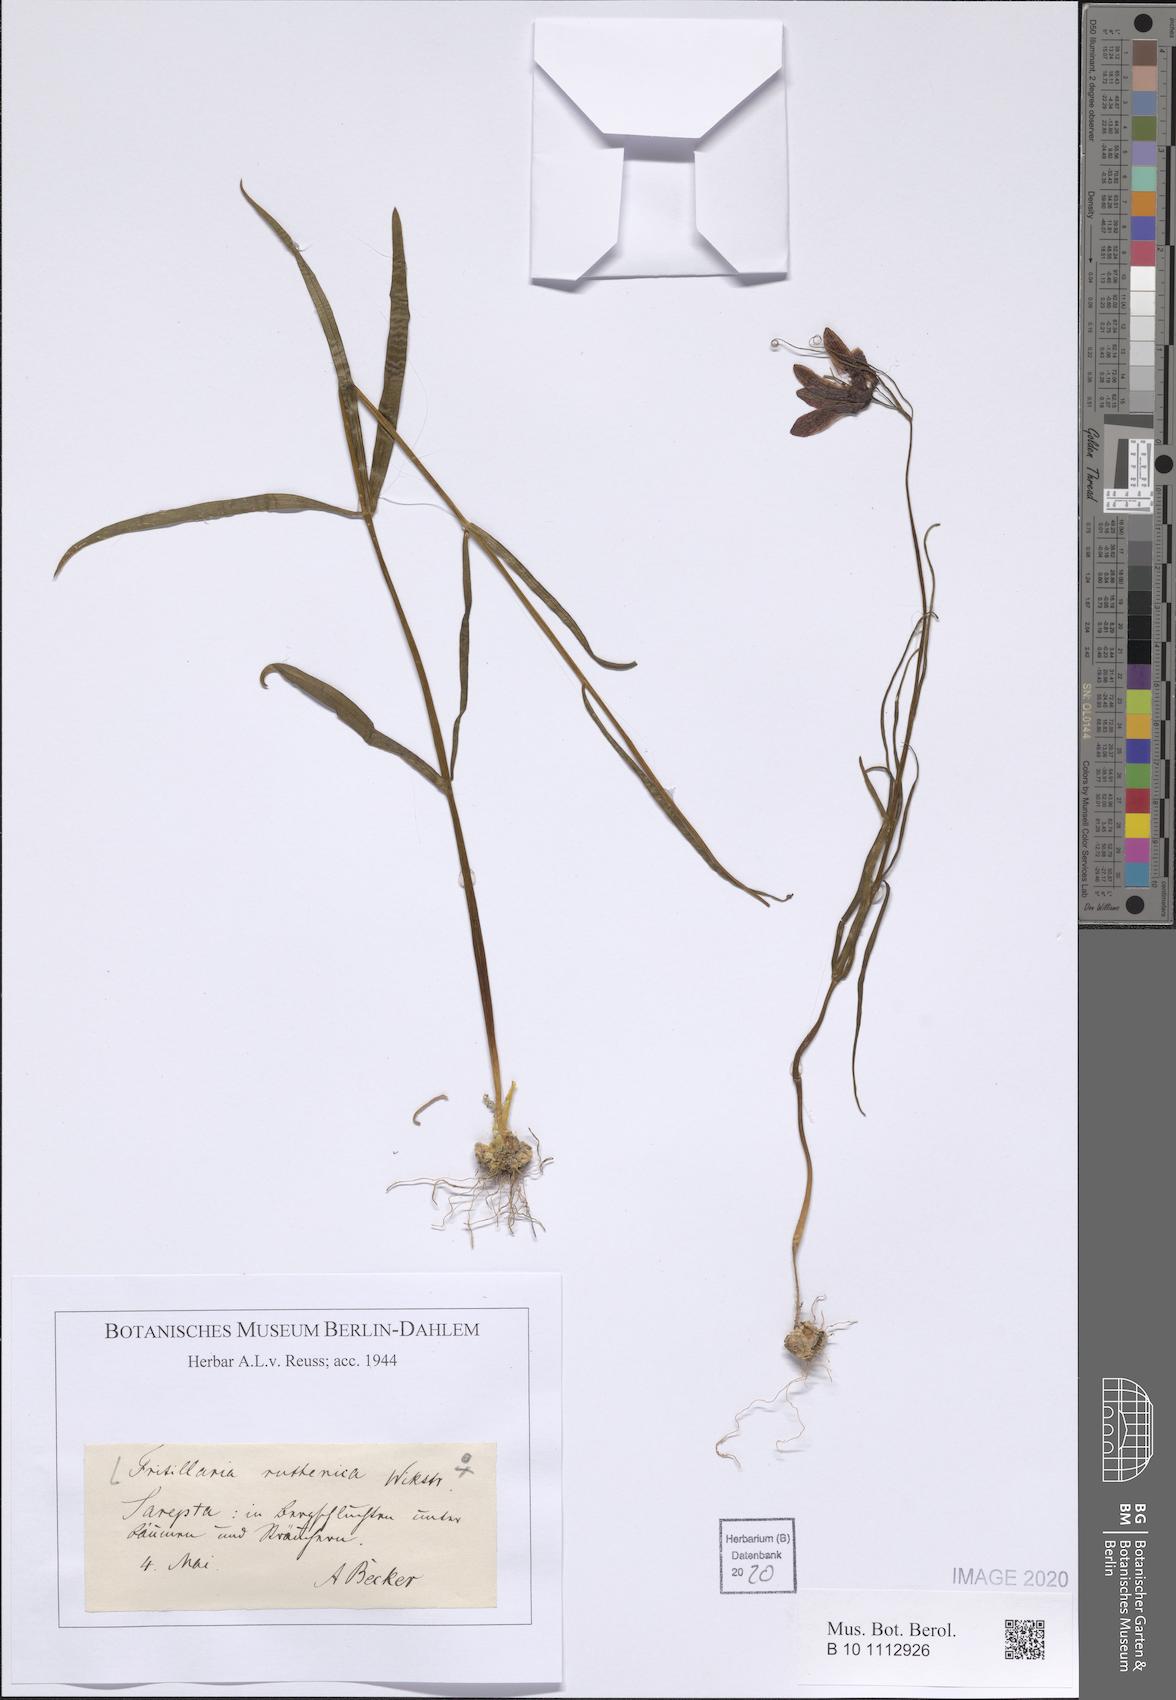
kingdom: Plantae
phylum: Tracheophyta
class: Liliopsida
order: Liliales
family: Liliaceae
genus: Fritillaria
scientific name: Fritillaria ruthenica
